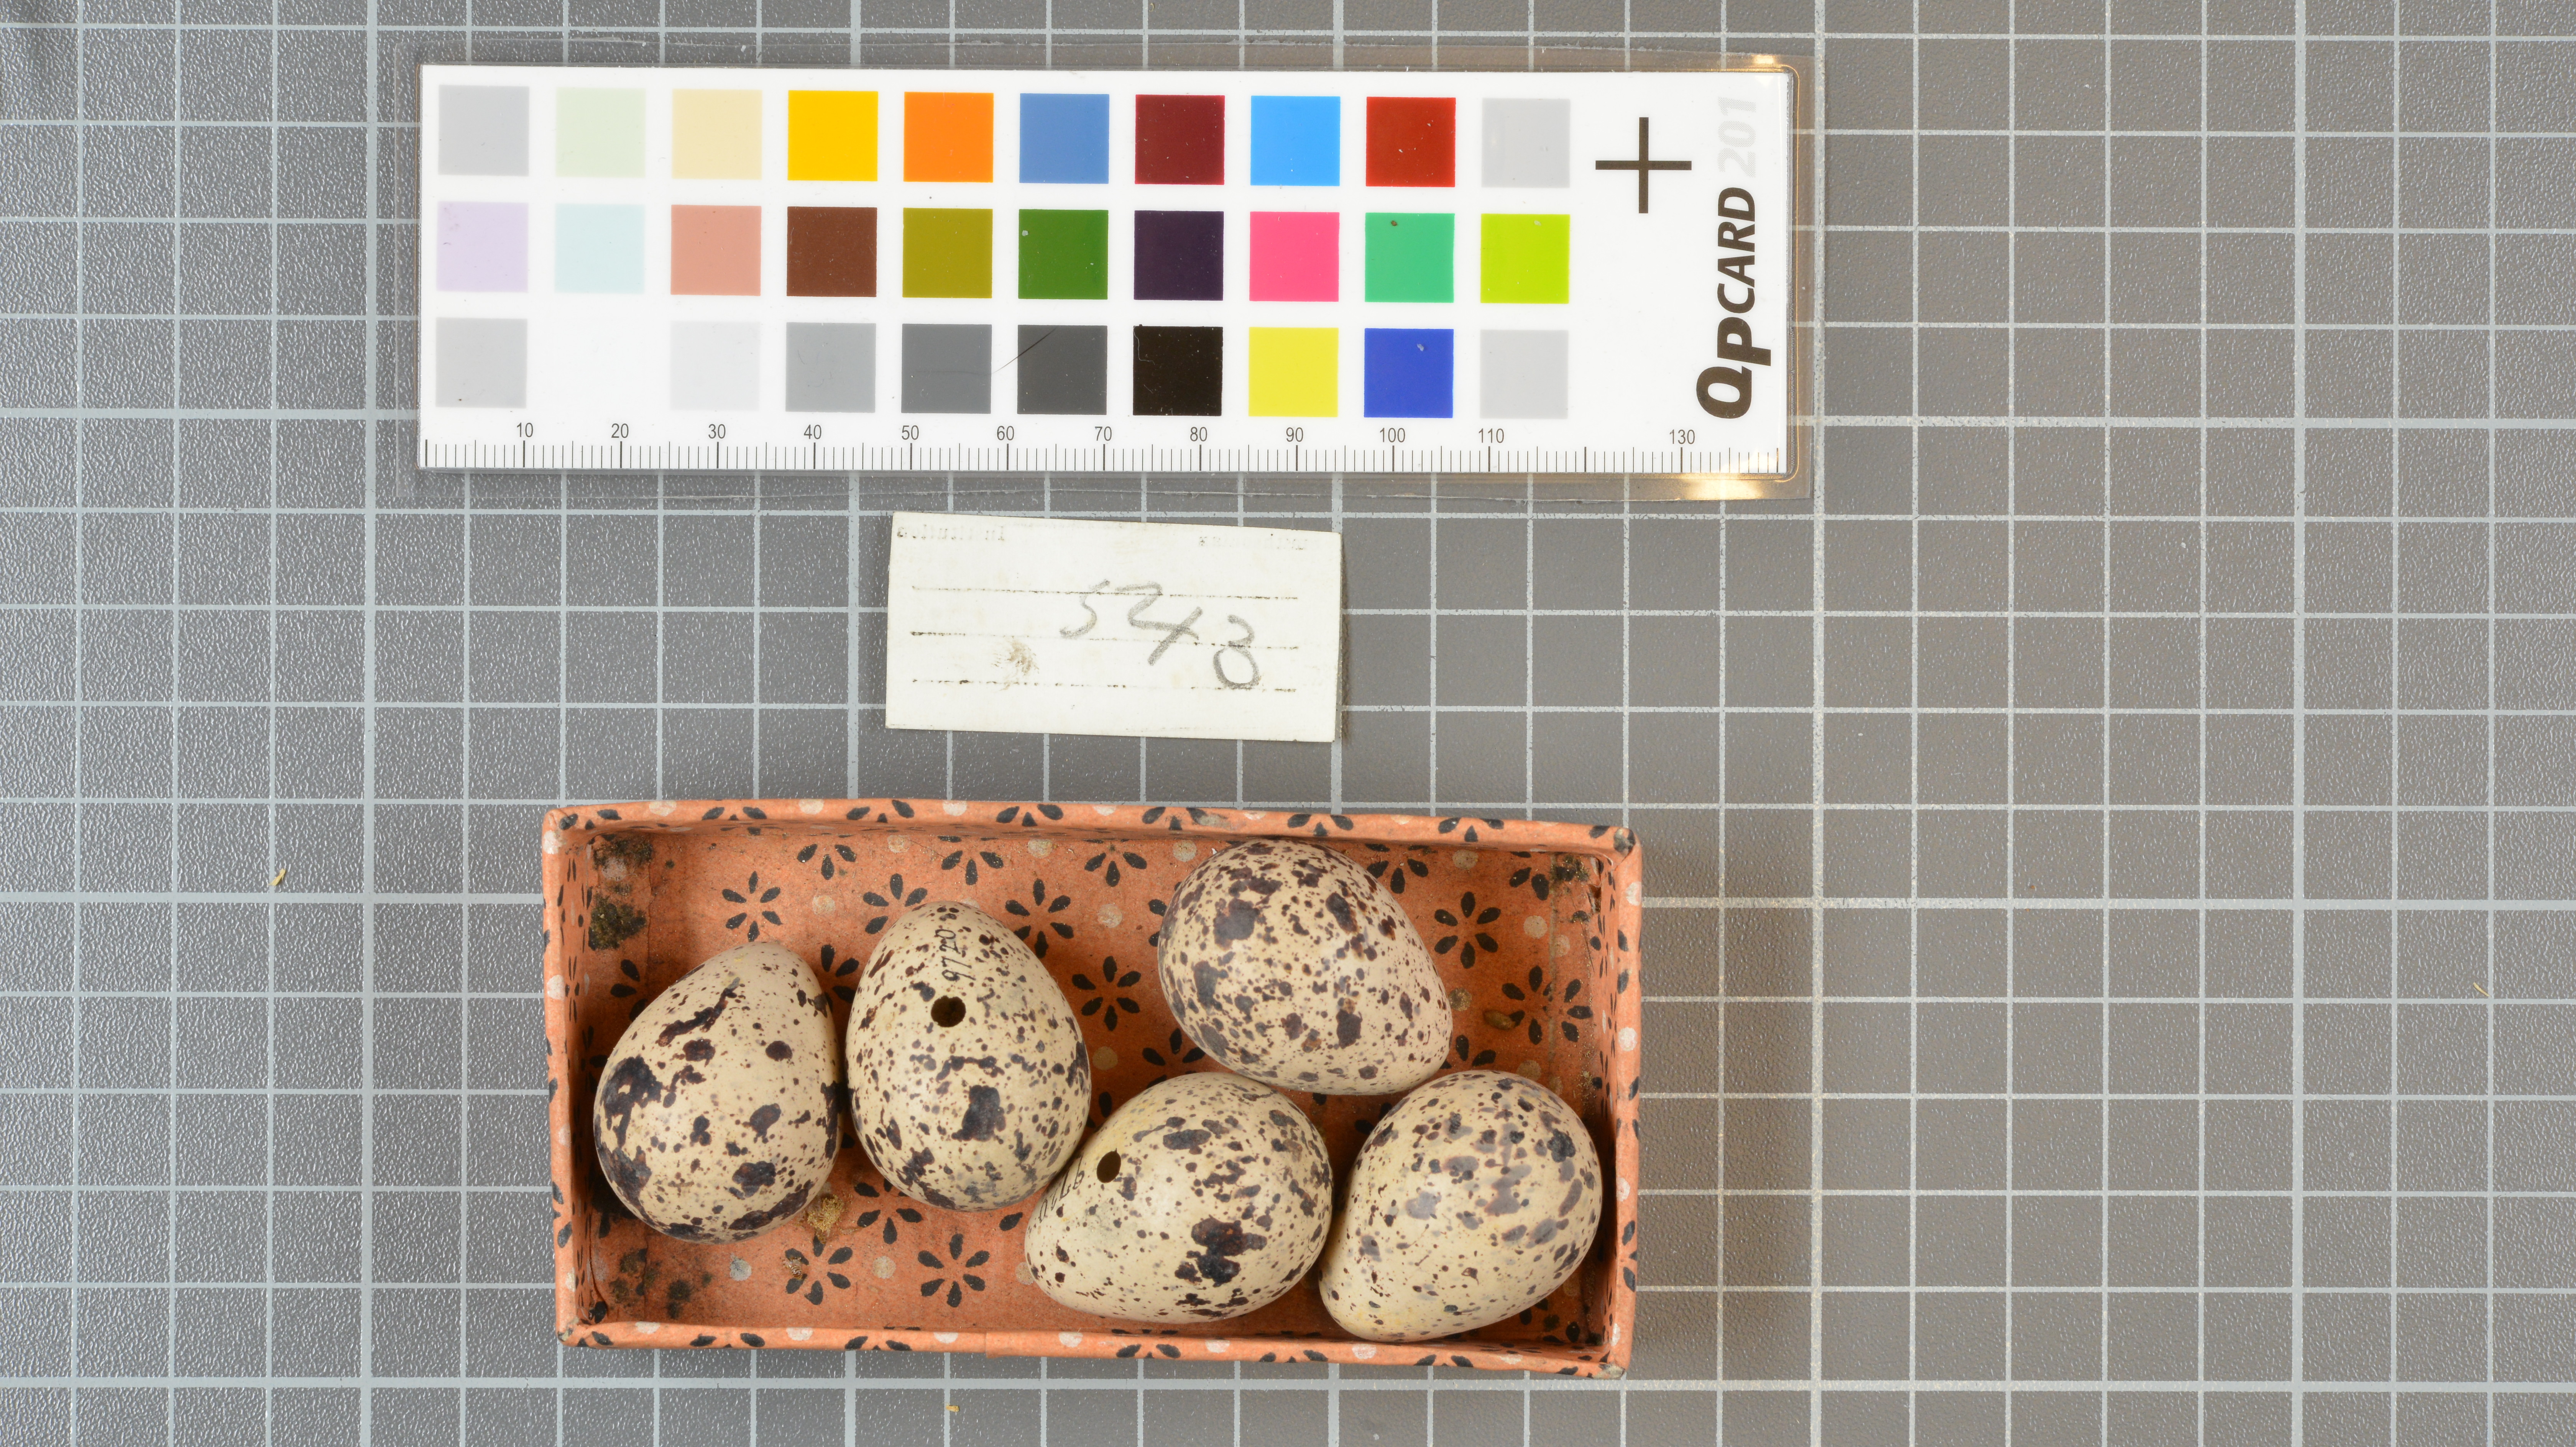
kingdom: Animalia
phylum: Chordata
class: Aves
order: Charadriiformes
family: Scolopacidae
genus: Actitis
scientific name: Actitis macularius
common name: Spotted sandpiper
